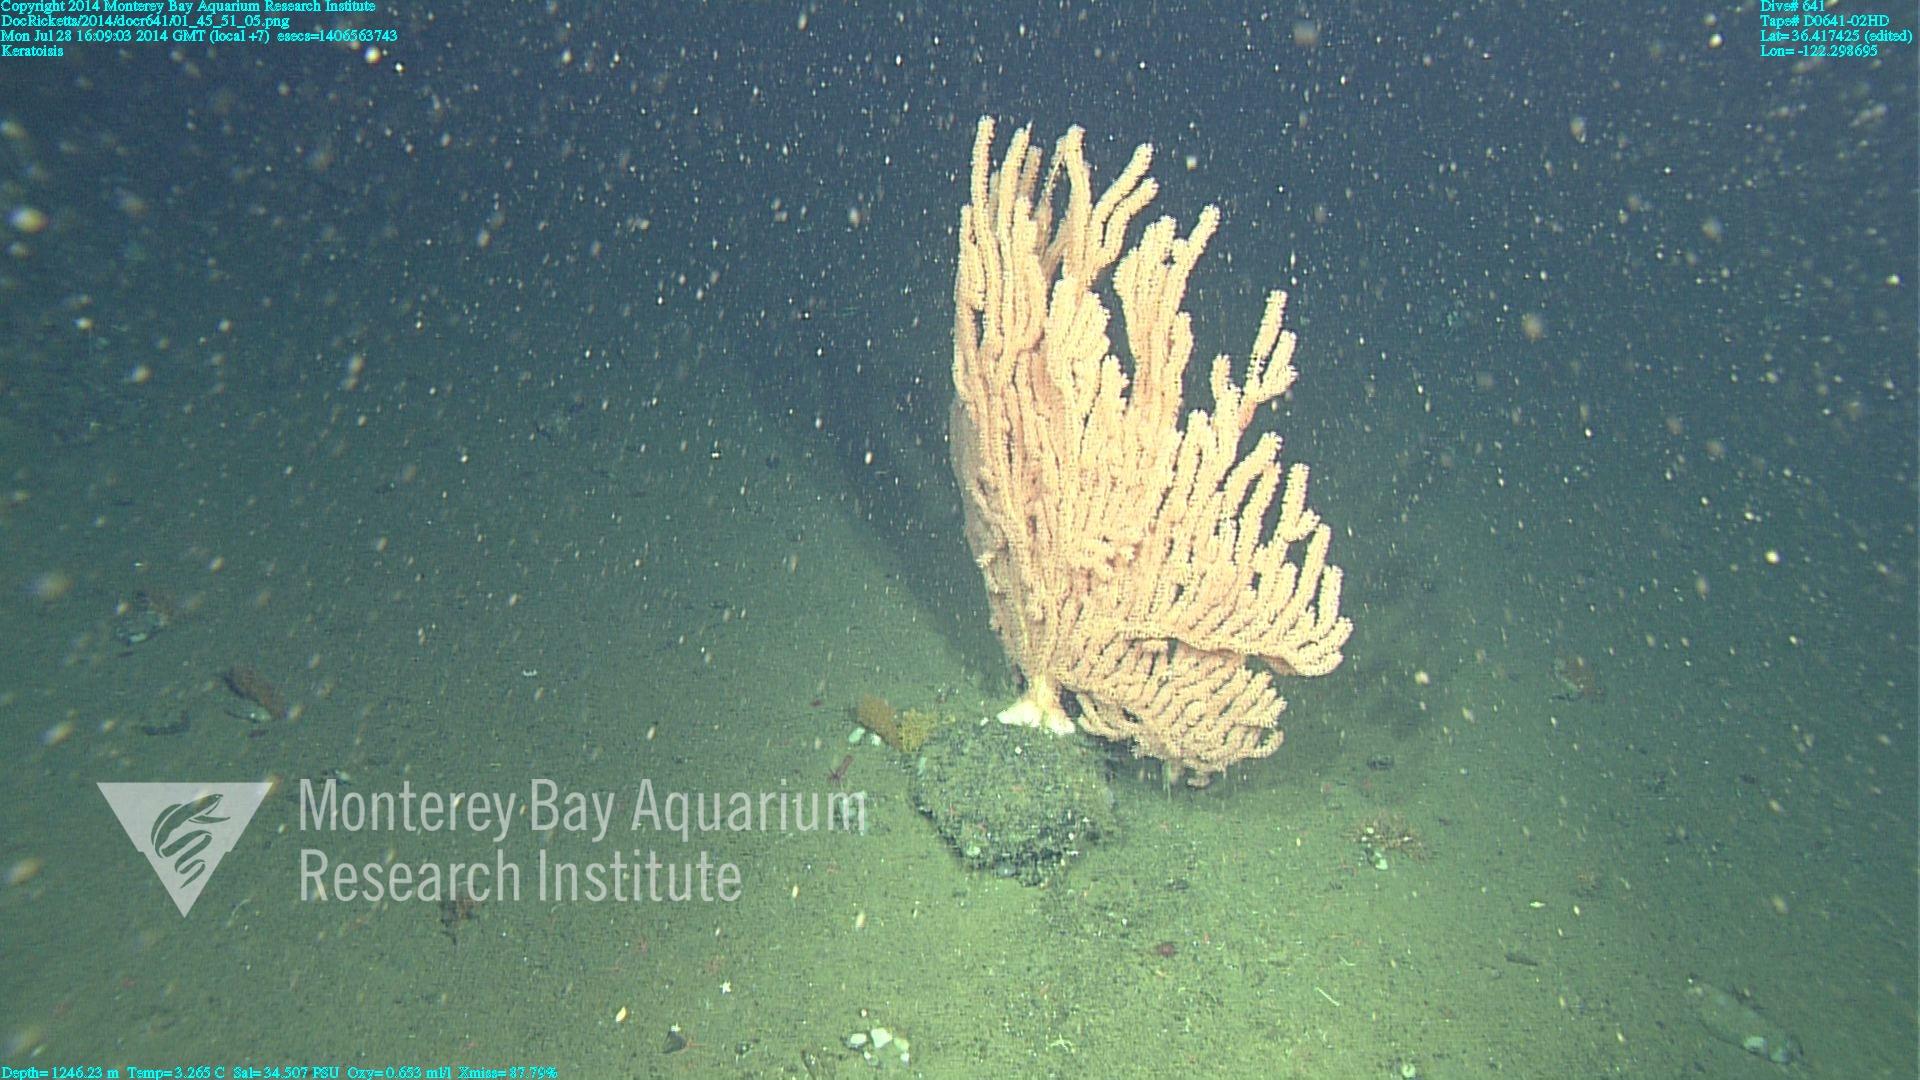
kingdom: Animalia
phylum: Cnidaria
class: Anthozoa
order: Scleralcyonacea
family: Keratoisididae
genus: Keratoisis
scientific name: Keratoisis
